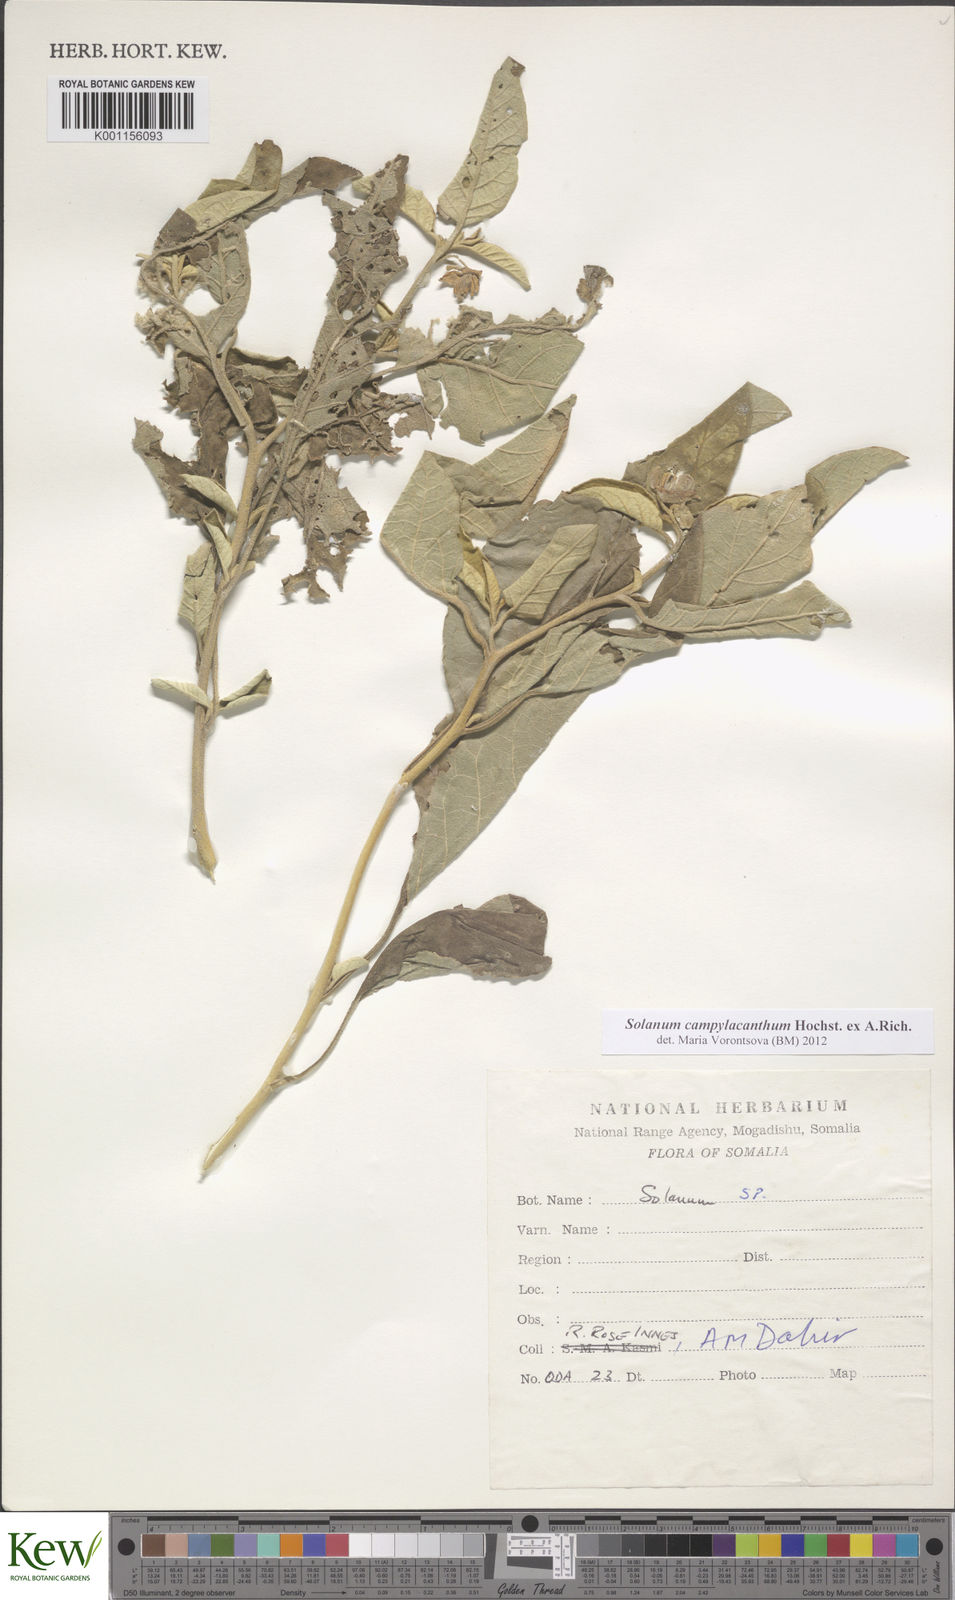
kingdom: Plantae
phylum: Tracheophyta
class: Magnoliopsida
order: Solanales
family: Solanaceae
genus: Solanum
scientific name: Solanum campylacanthum
